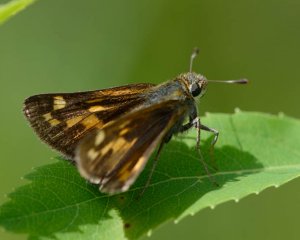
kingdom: Animalia
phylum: Arthropoda
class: Insecta
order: Lepidoptera
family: Hesperiidae
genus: Hesperia
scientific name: Hesperia comma
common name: Common Branded Skipper
